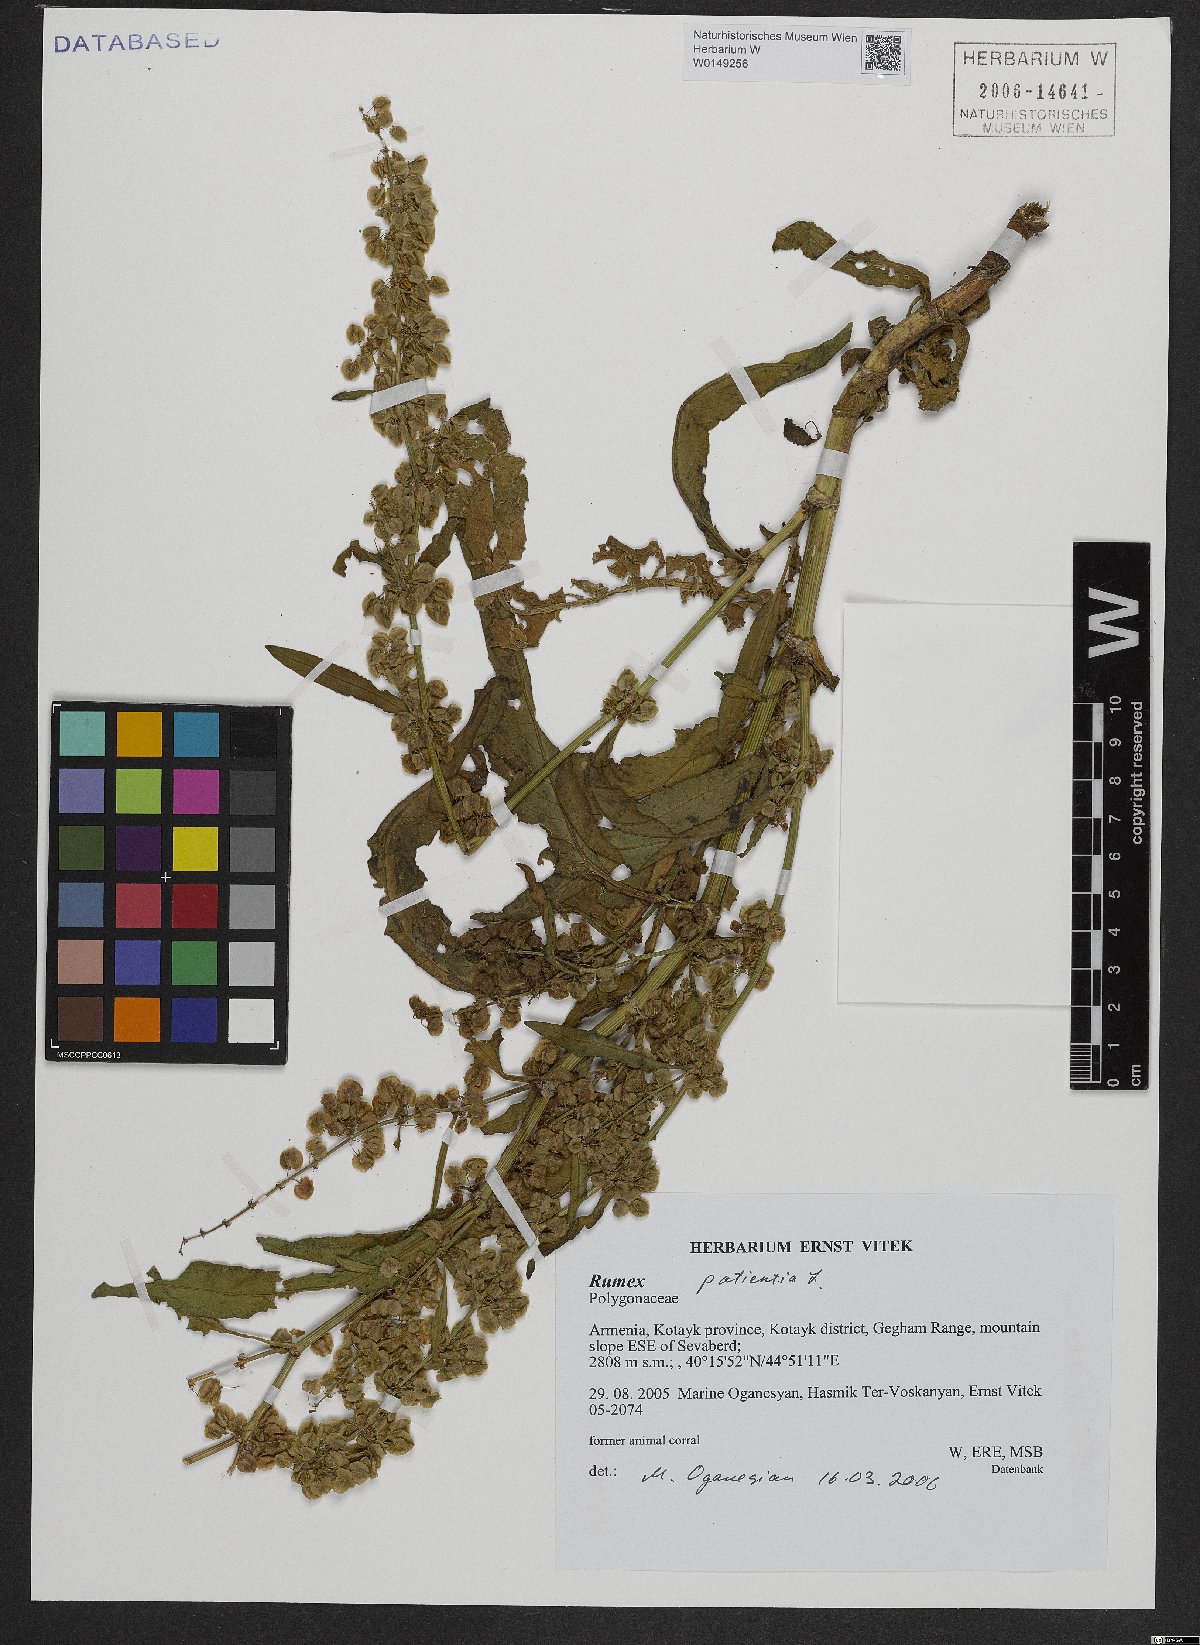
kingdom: Plantae
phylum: Tracheophyta
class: Magnoliopsida
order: Caryophyllales
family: Polygonaceae
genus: Rumex
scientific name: Rumex patientia
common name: Patience dock
